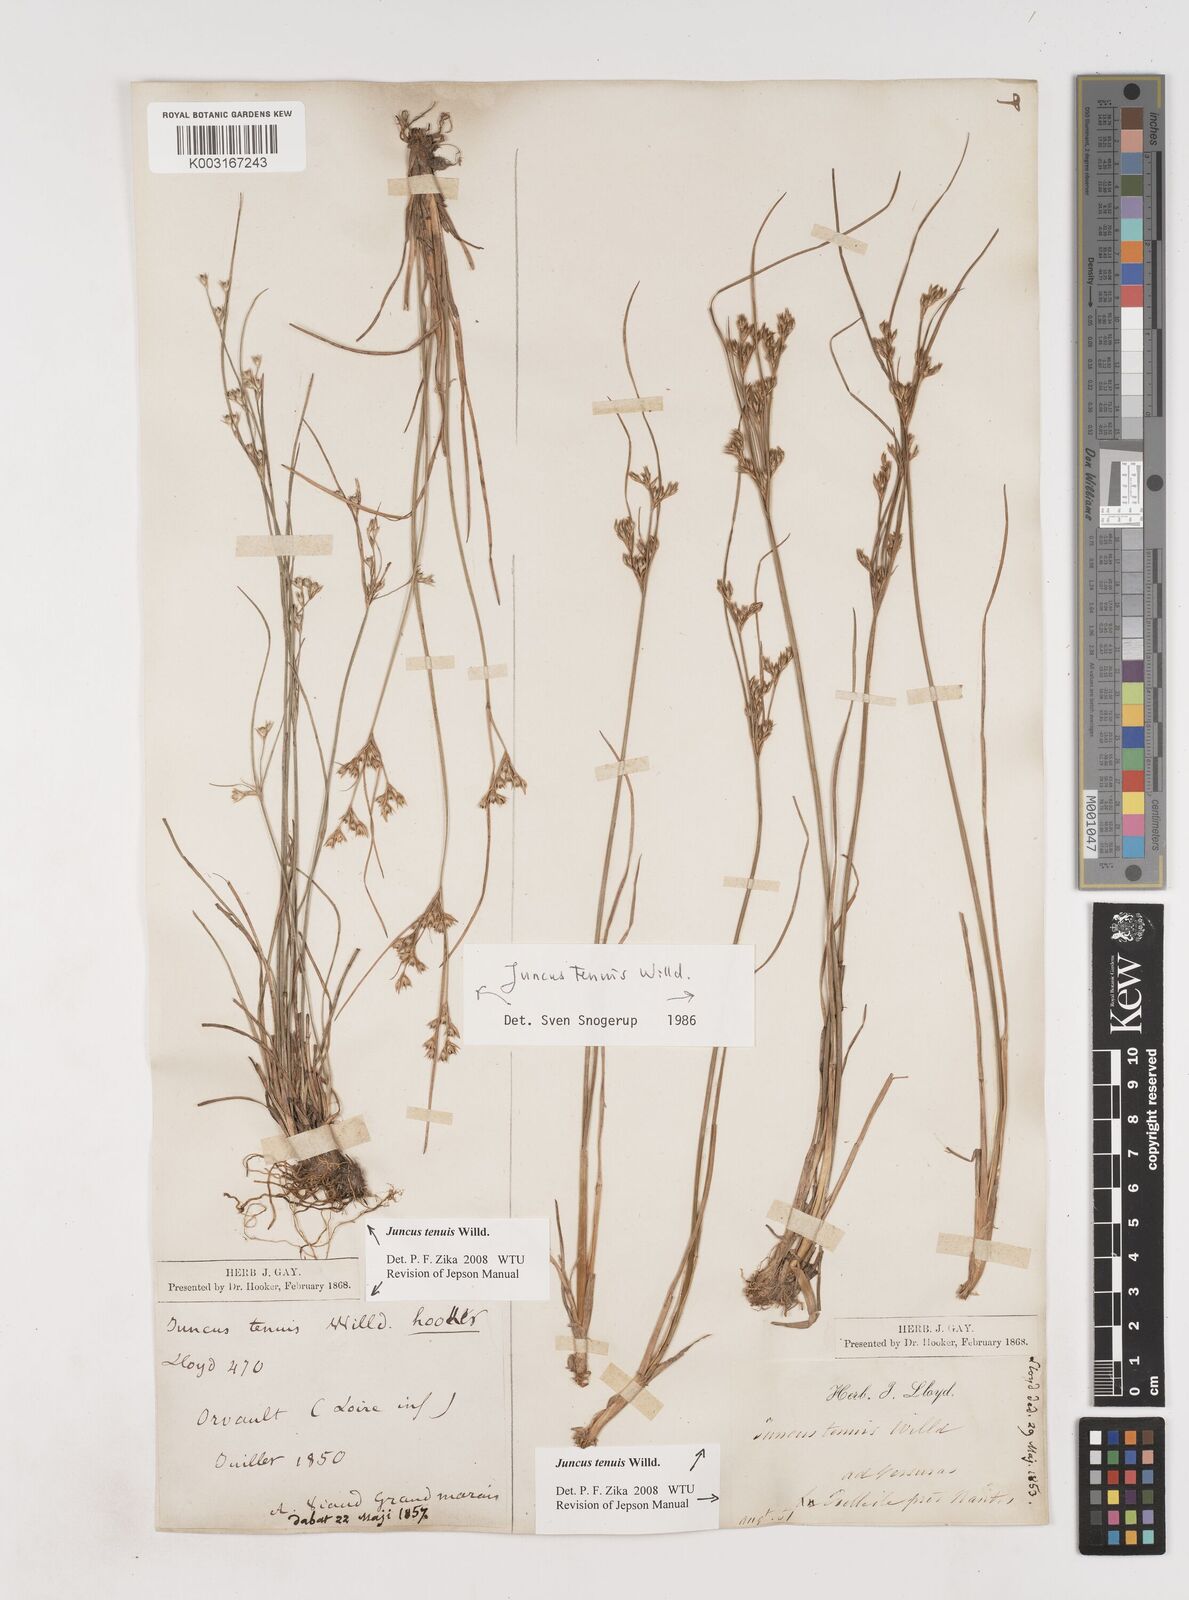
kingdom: Plantae
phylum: Tracheophyta
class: Liliopsida
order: Poales
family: Juncaceae
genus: Juncus
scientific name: Juncus tenuis
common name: Slender rush
